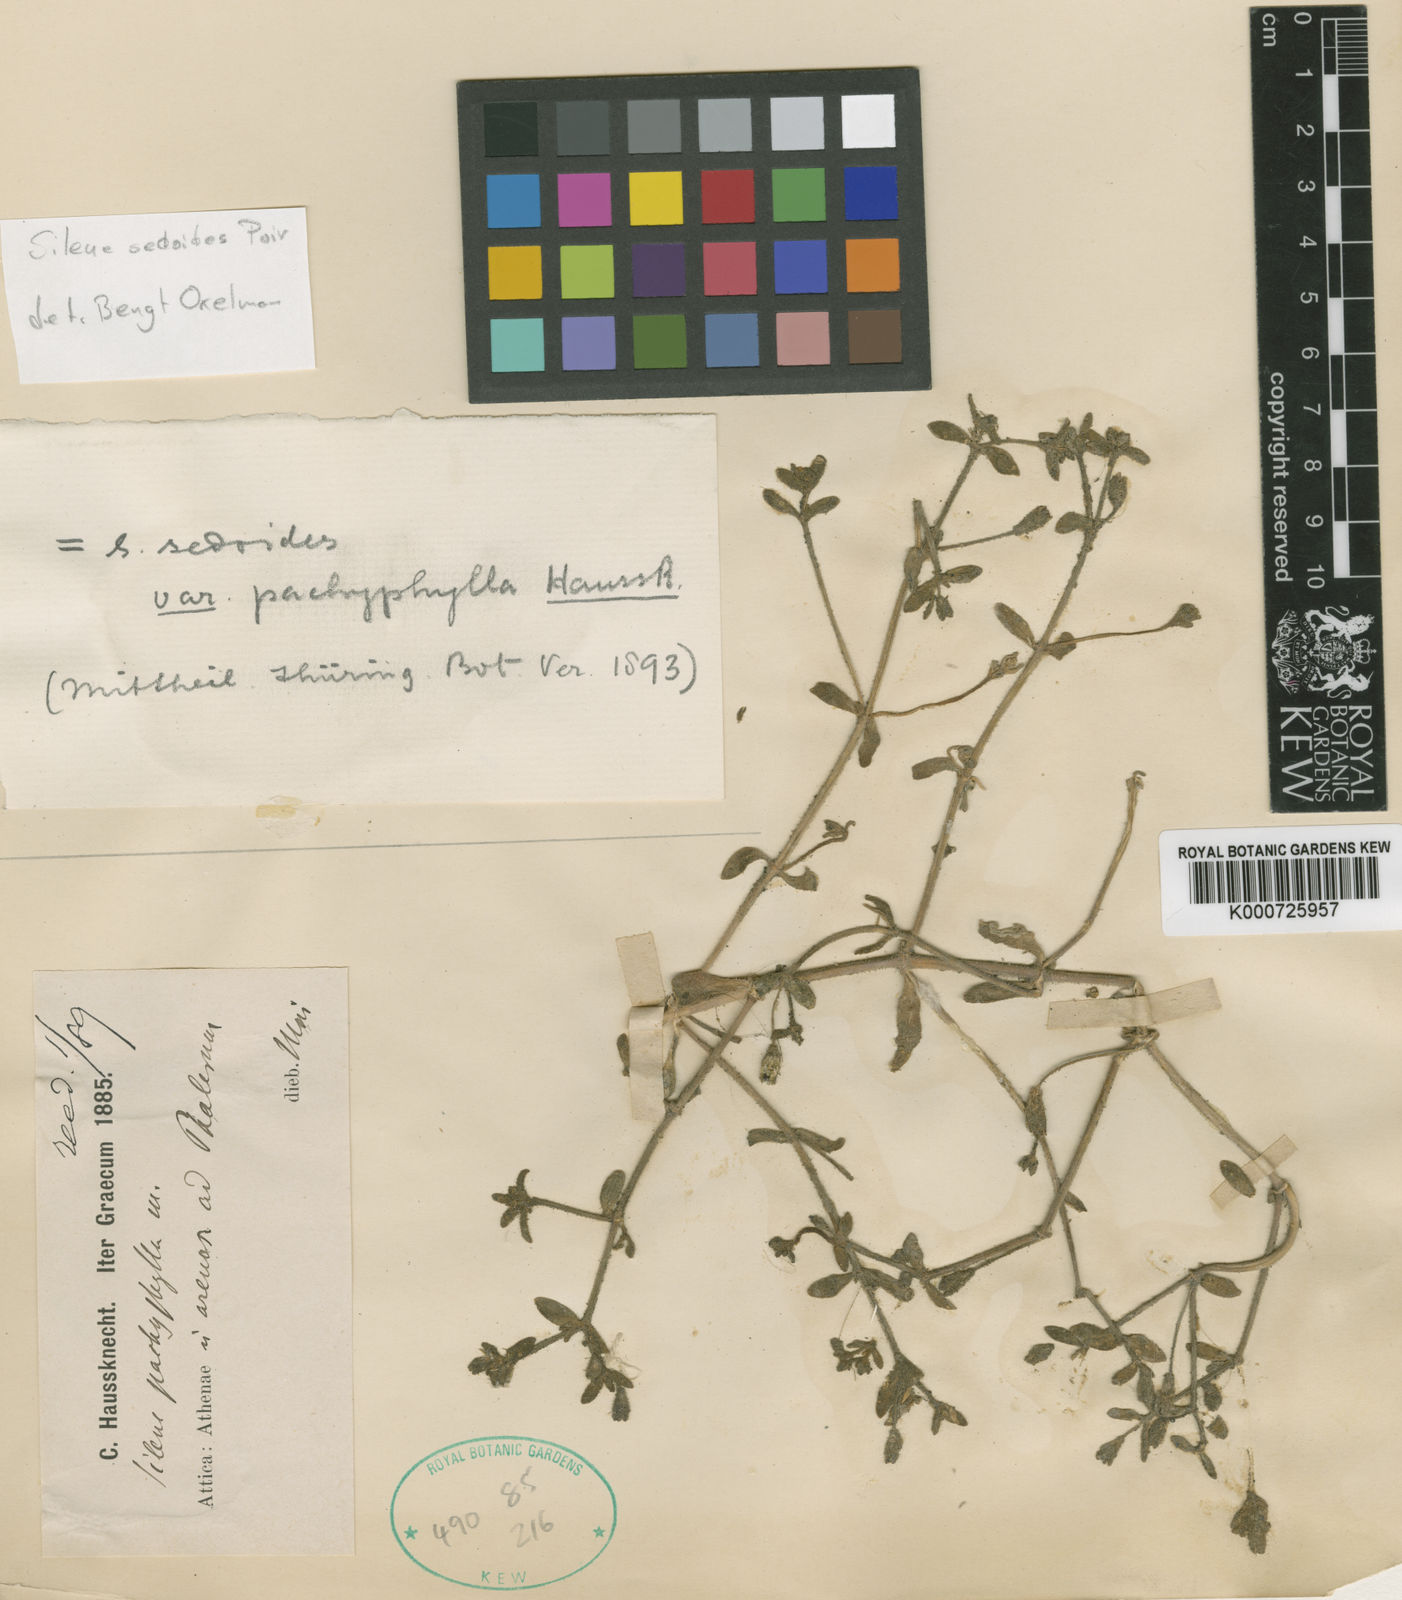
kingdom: Plantae
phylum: Tracheophyta
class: Magnoliopsida
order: Caryophyllales
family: Caryophyllaceae
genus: Silene
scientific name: Silene sedoides
